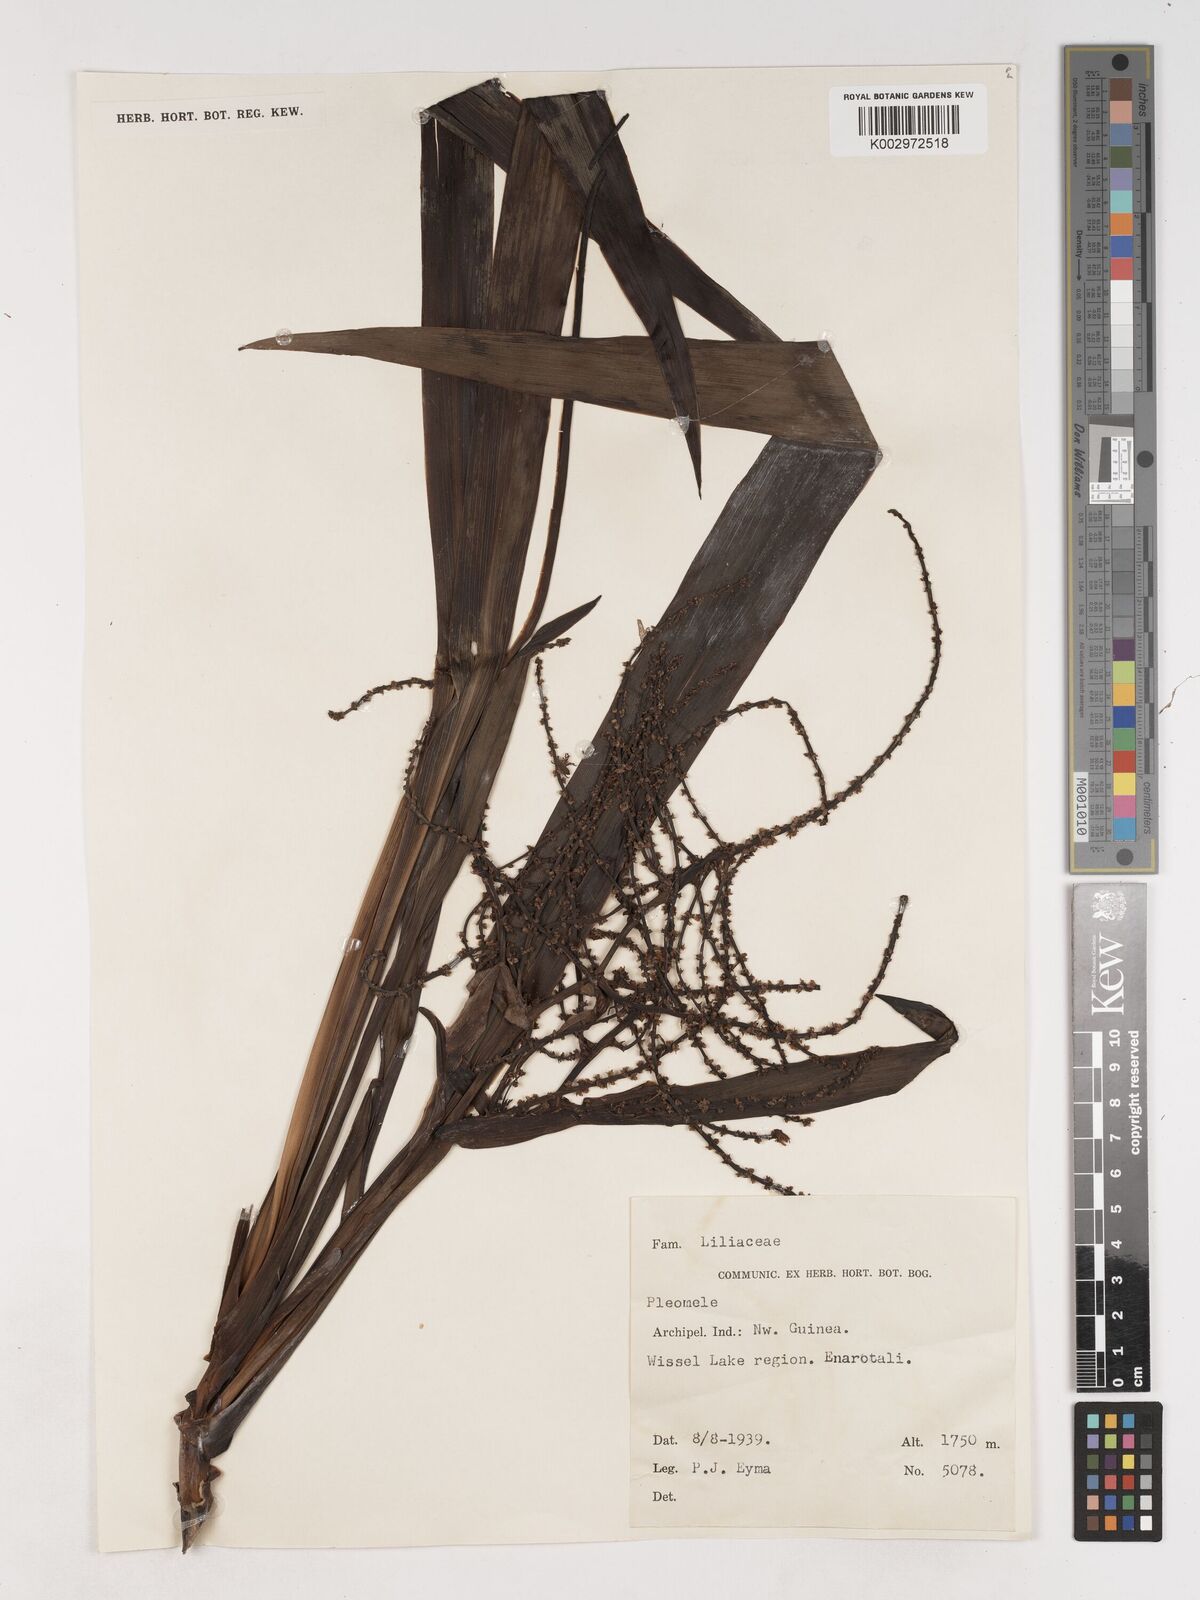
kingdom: Plantae
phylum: Tracheophyta
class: Liliopsida
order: Asparagales
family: Asparagaceae
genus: Cordyline
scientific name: Cordyline
